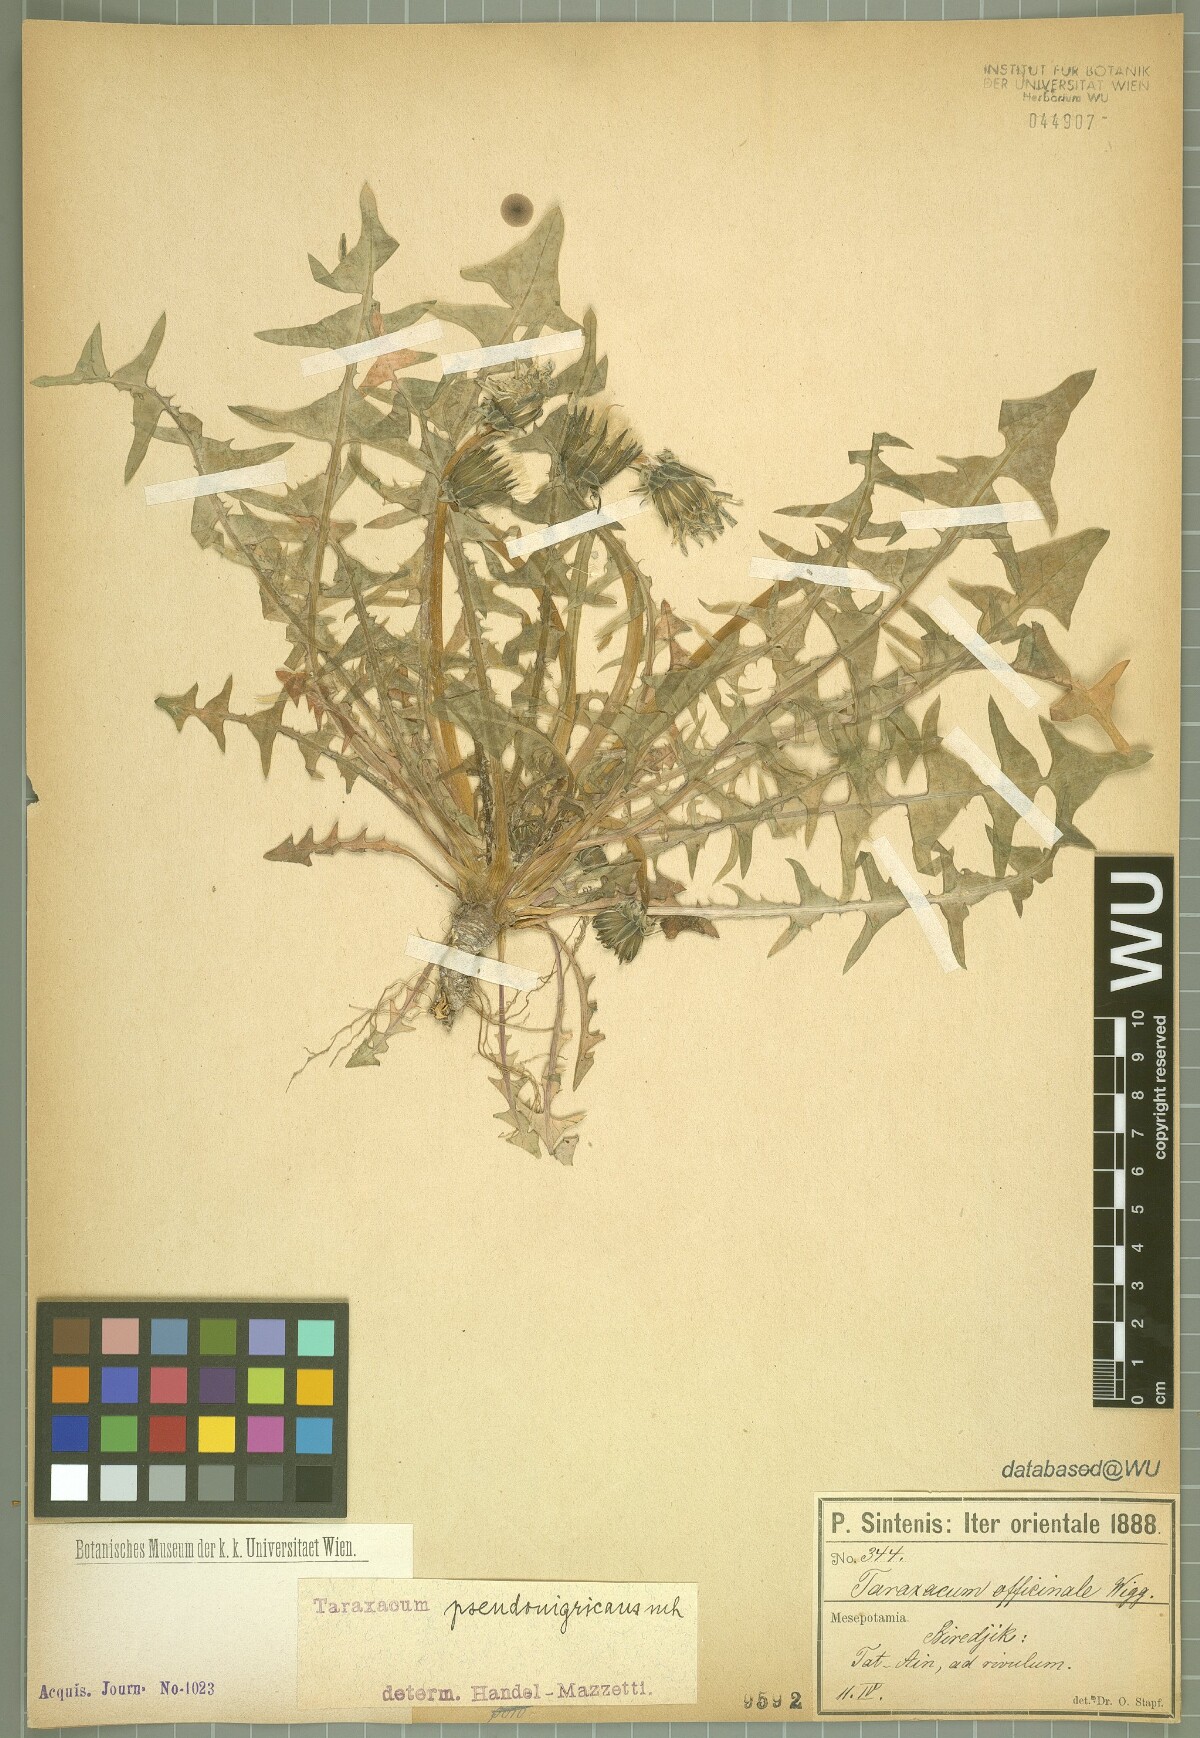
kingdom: Plantae
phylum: Tracheophyta
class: Magnoliopsida
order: Asterales
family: Asteraceae
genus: Taraxacum
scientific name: Taraxacum pseudonigricans
